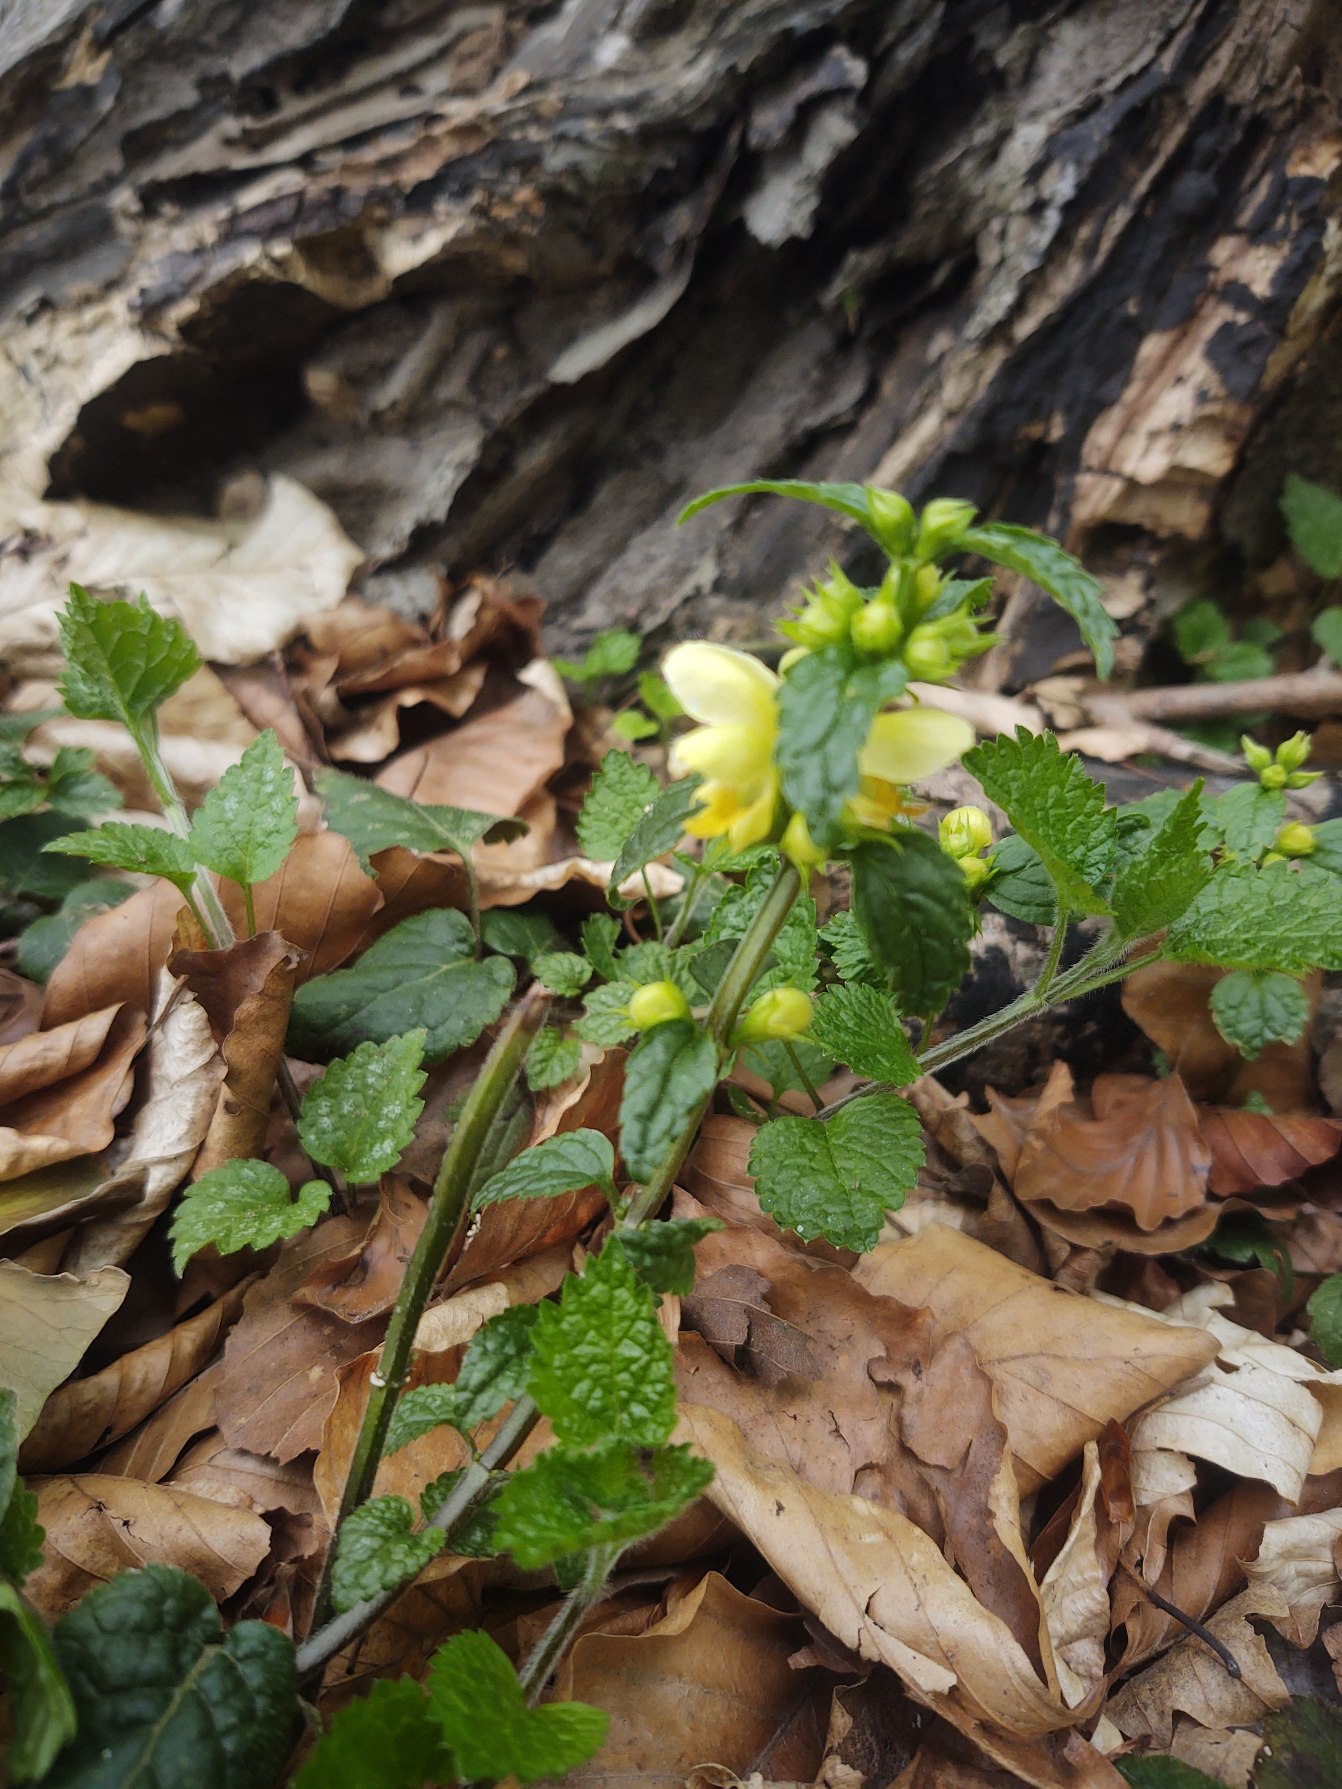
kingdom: Plantae
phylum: Tracheophyta
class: Magnoliopsida
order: Lamiales
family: Lamiaceae
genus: Lamium
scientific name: Lamium galeobdolon
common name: Almindelig guldnælde
